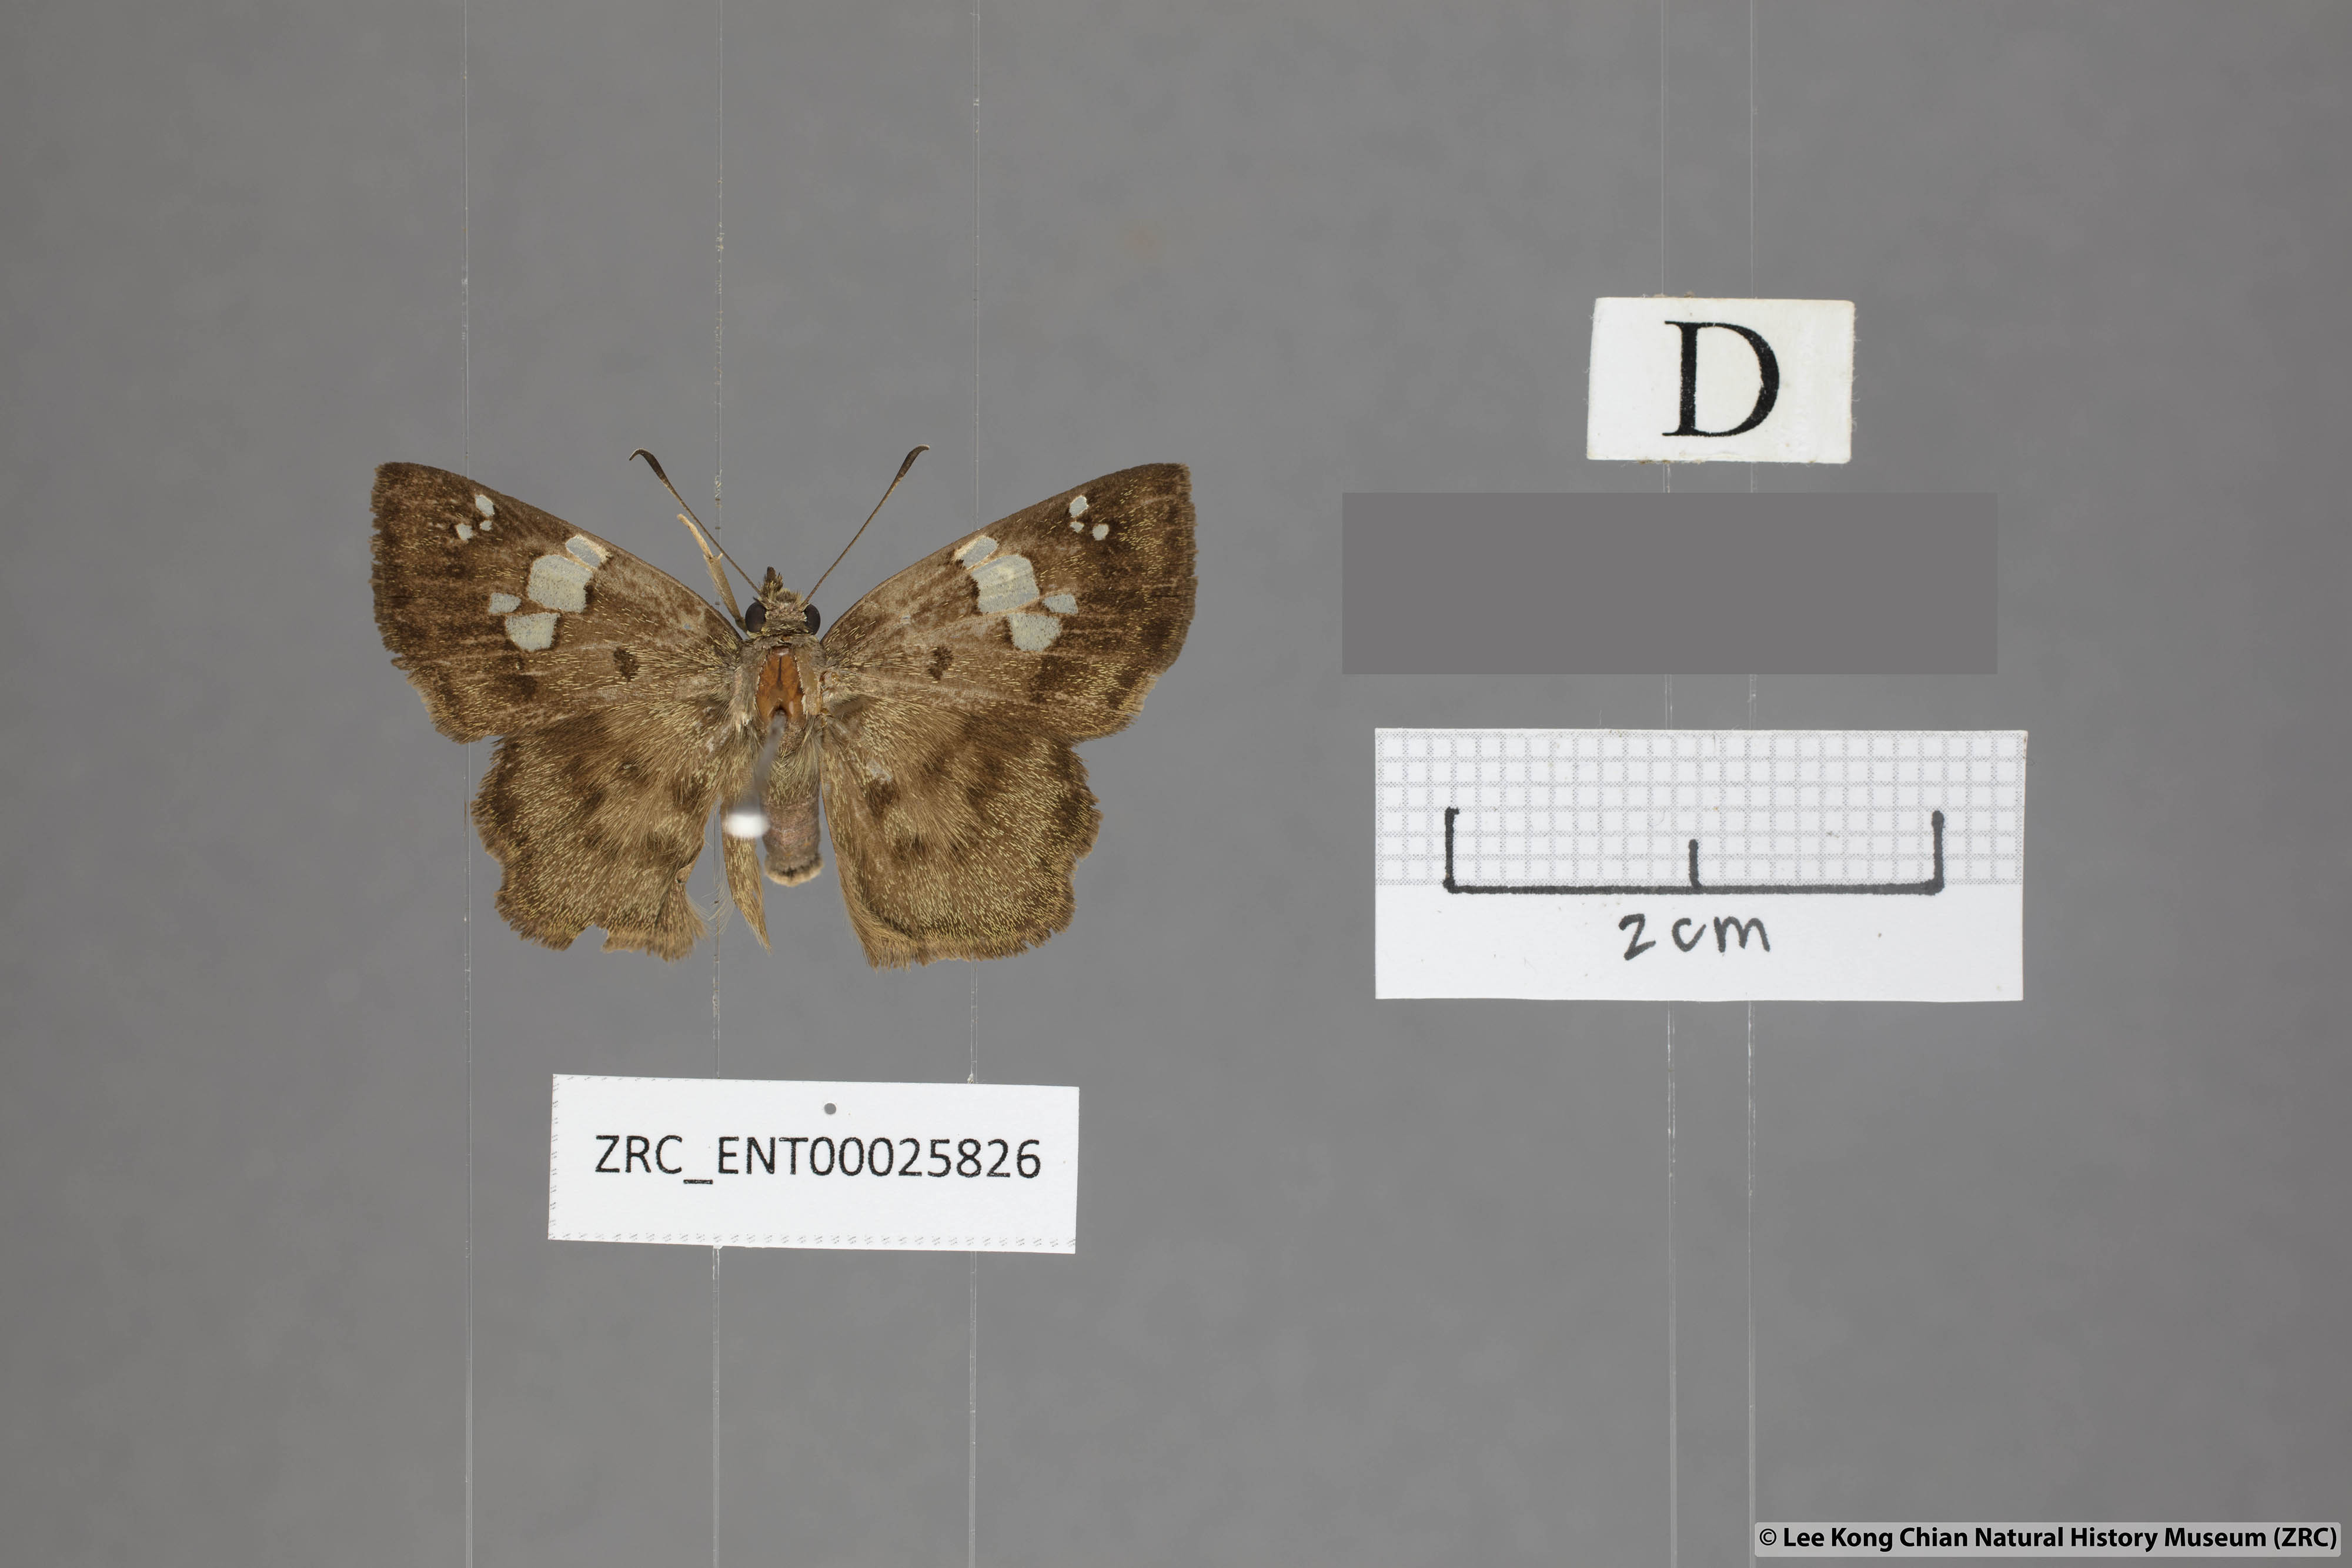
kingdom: Animalia
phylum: Arthropoda
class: Insecta
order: Lepidoptera
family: Hesperiidae
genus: Coladenia
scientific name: Coladenia
